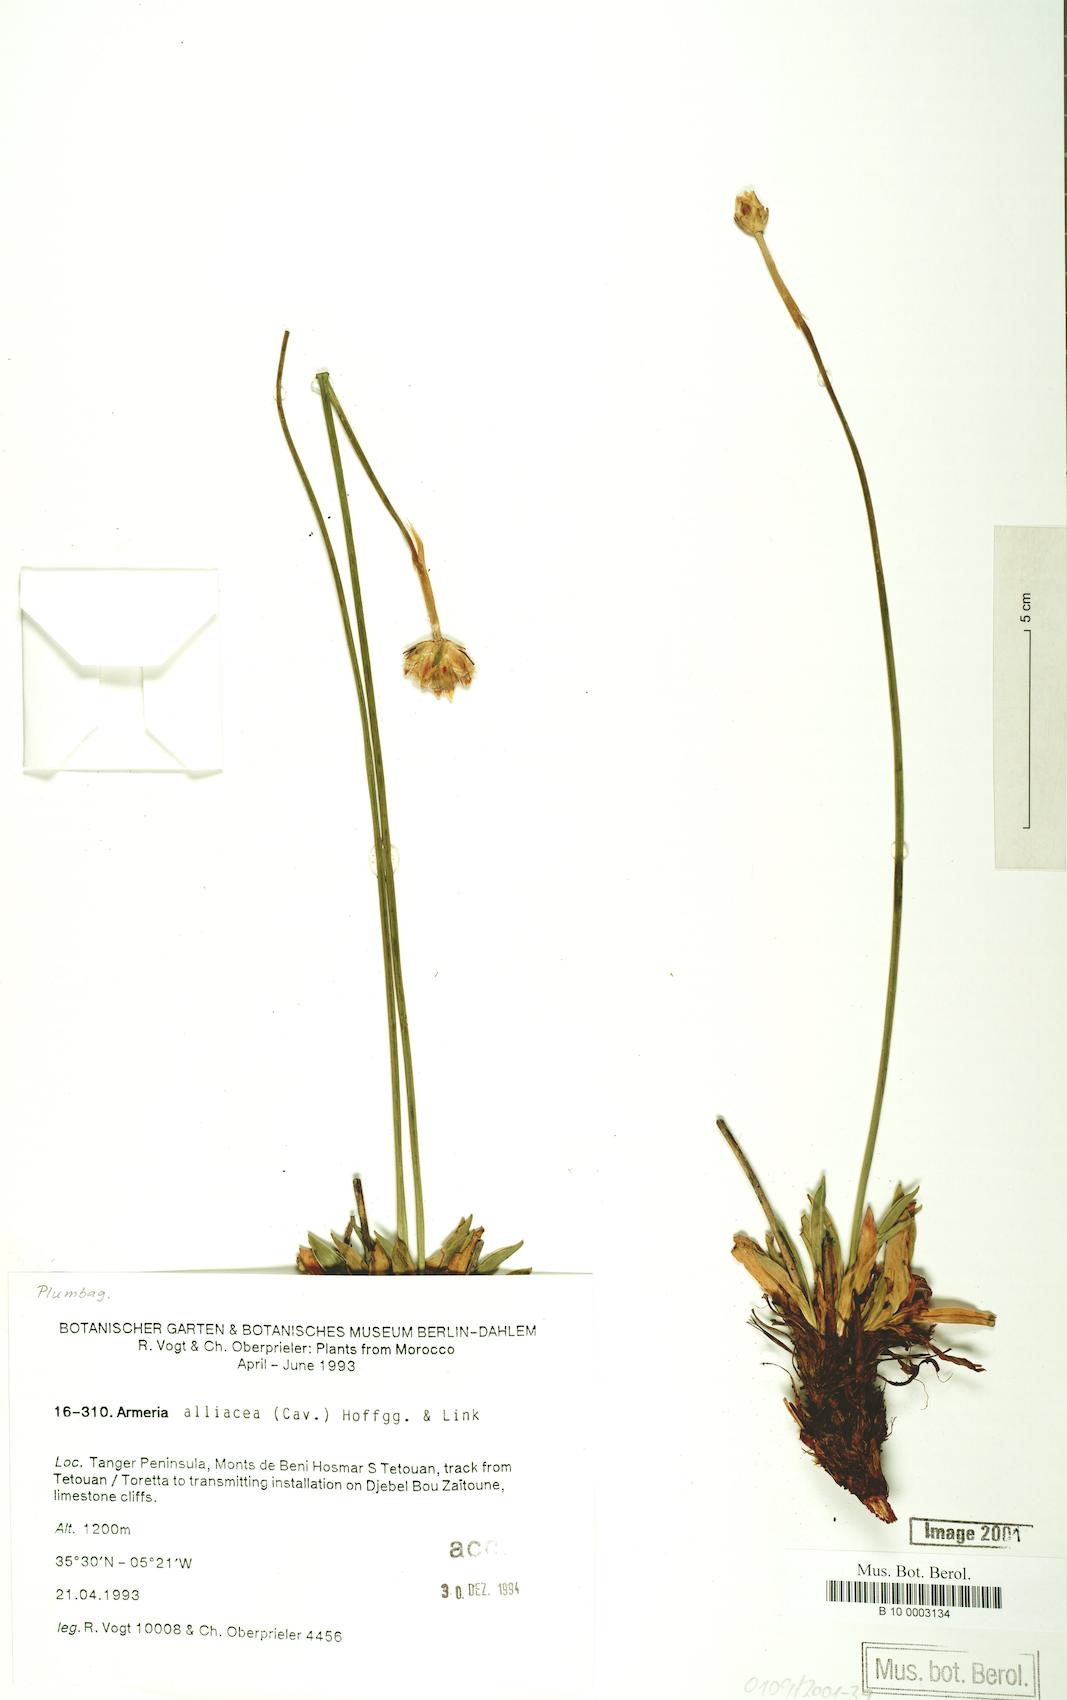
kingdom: Plantae
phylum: Tracheophyta
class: Magnoliopsida
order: Caryophyllales
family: Plumbaginaceae
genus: Armeria
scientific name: Armeria alliacea
